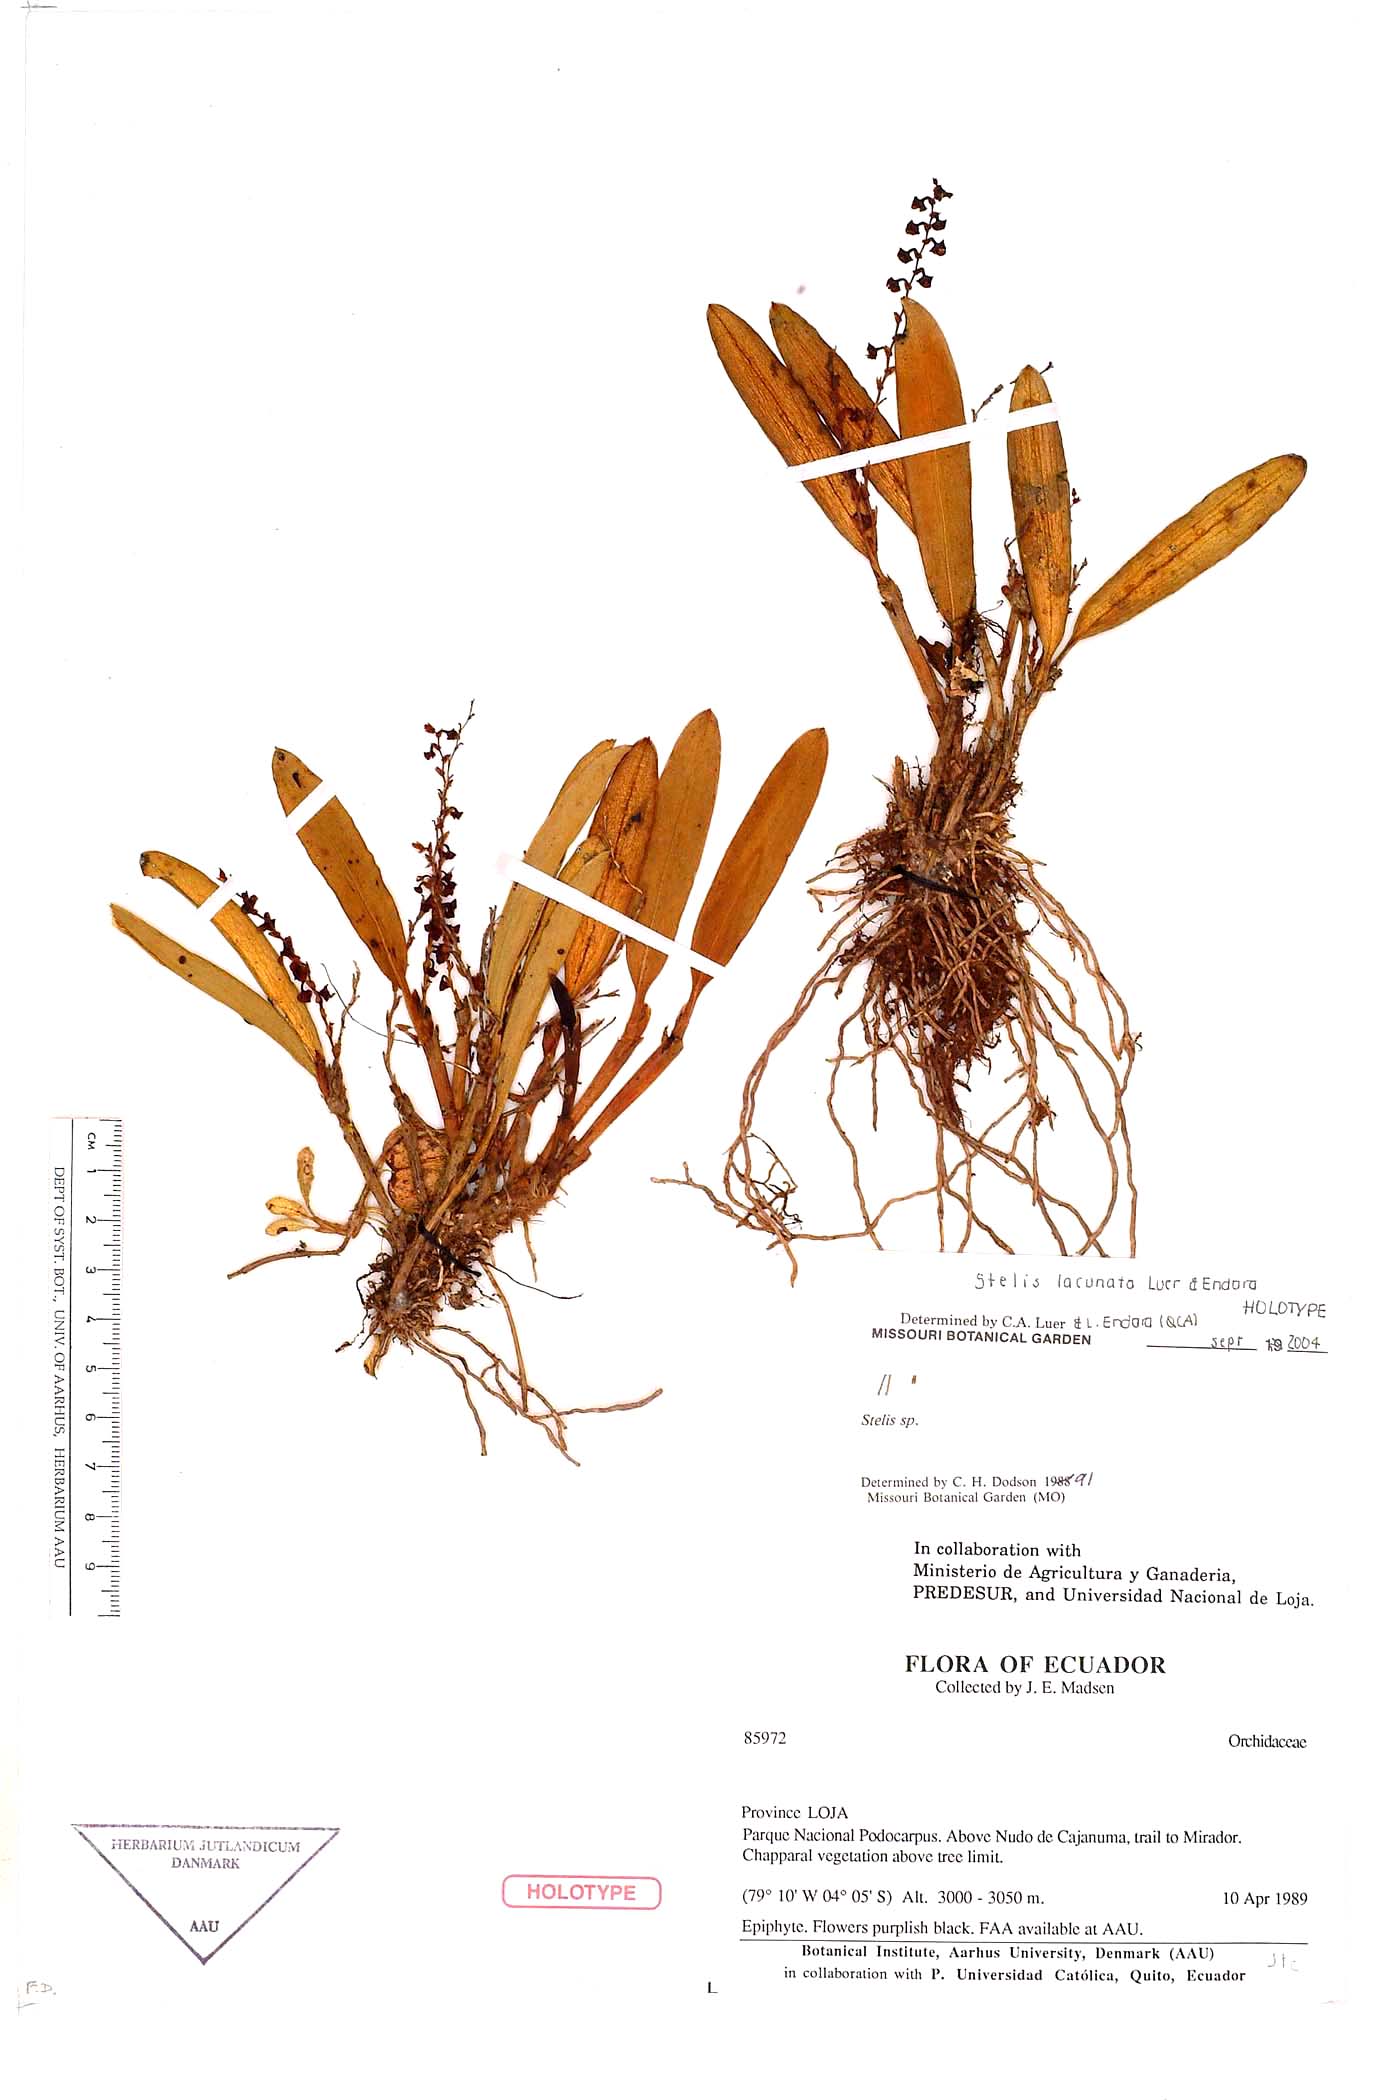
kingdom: Plantae
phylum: Tracheophyta
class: Liliopsida
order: Asparagales
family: Orchidaceae
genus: Stelis
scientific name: Stelis atroviolacea
